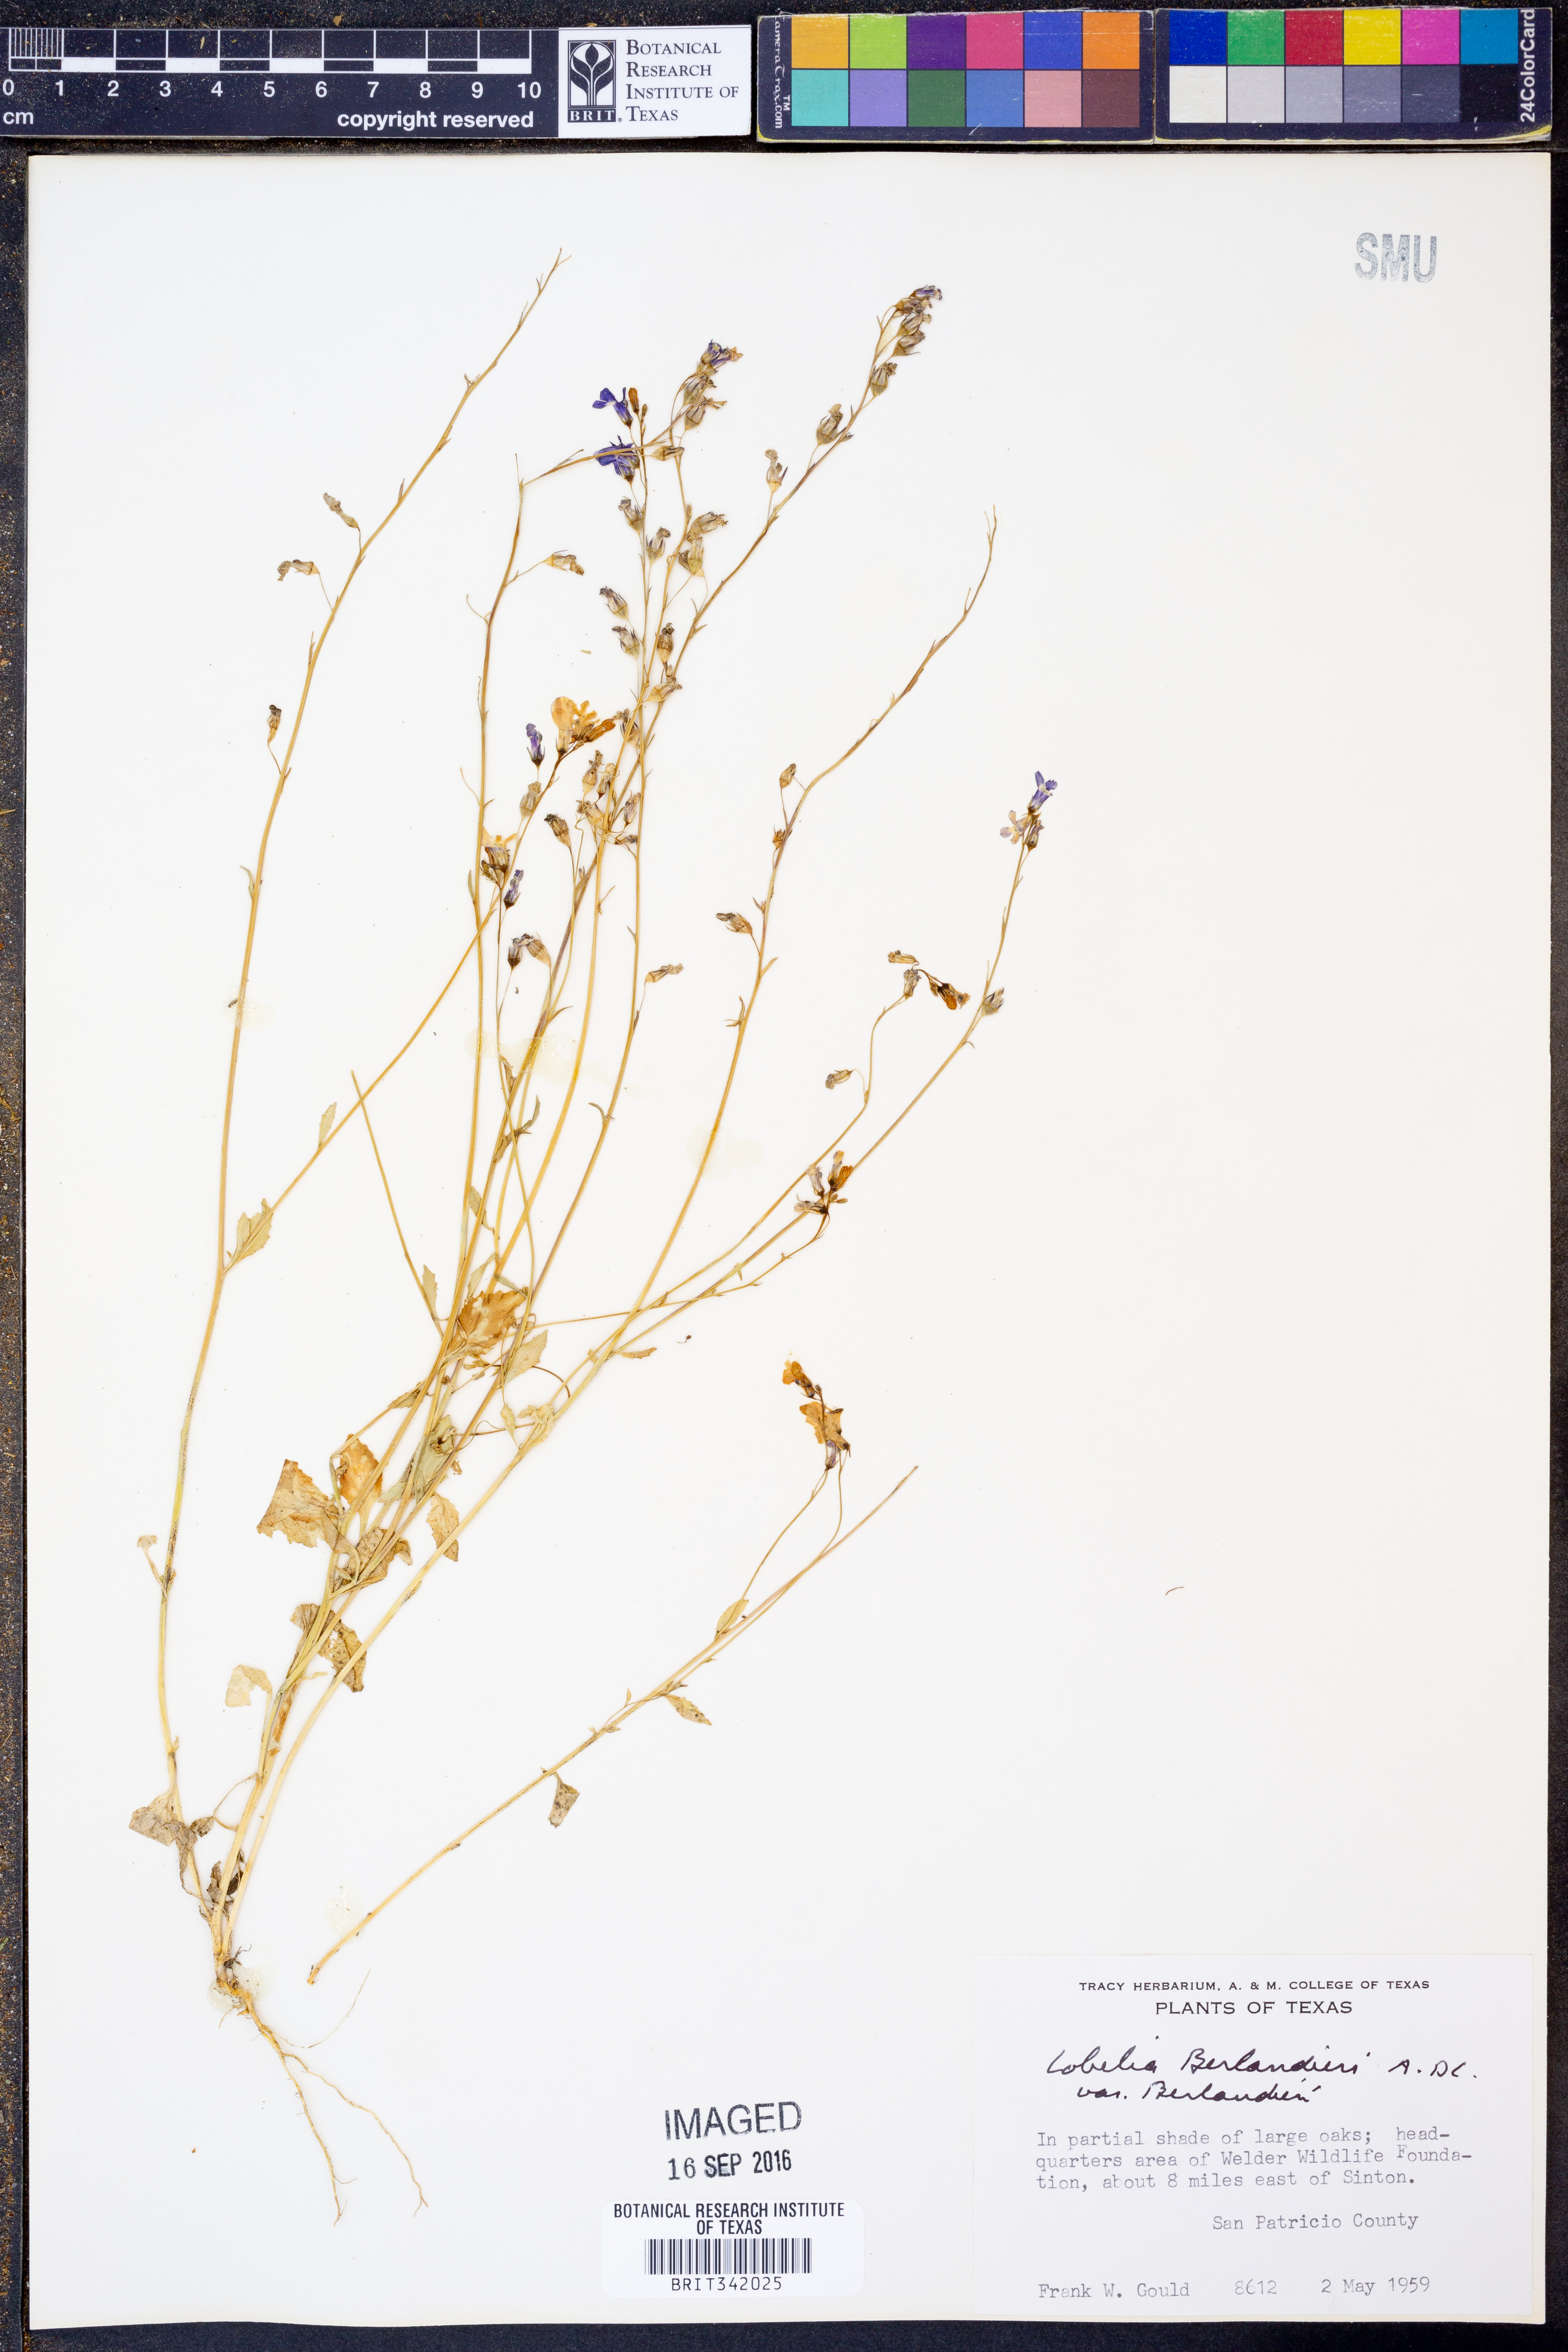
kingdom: Plantae
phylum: Tracheophyta
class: Magnoliopsida
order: Asterales
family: Campanulaceae
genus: Lobelia
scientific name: Lobelia berlandieri
